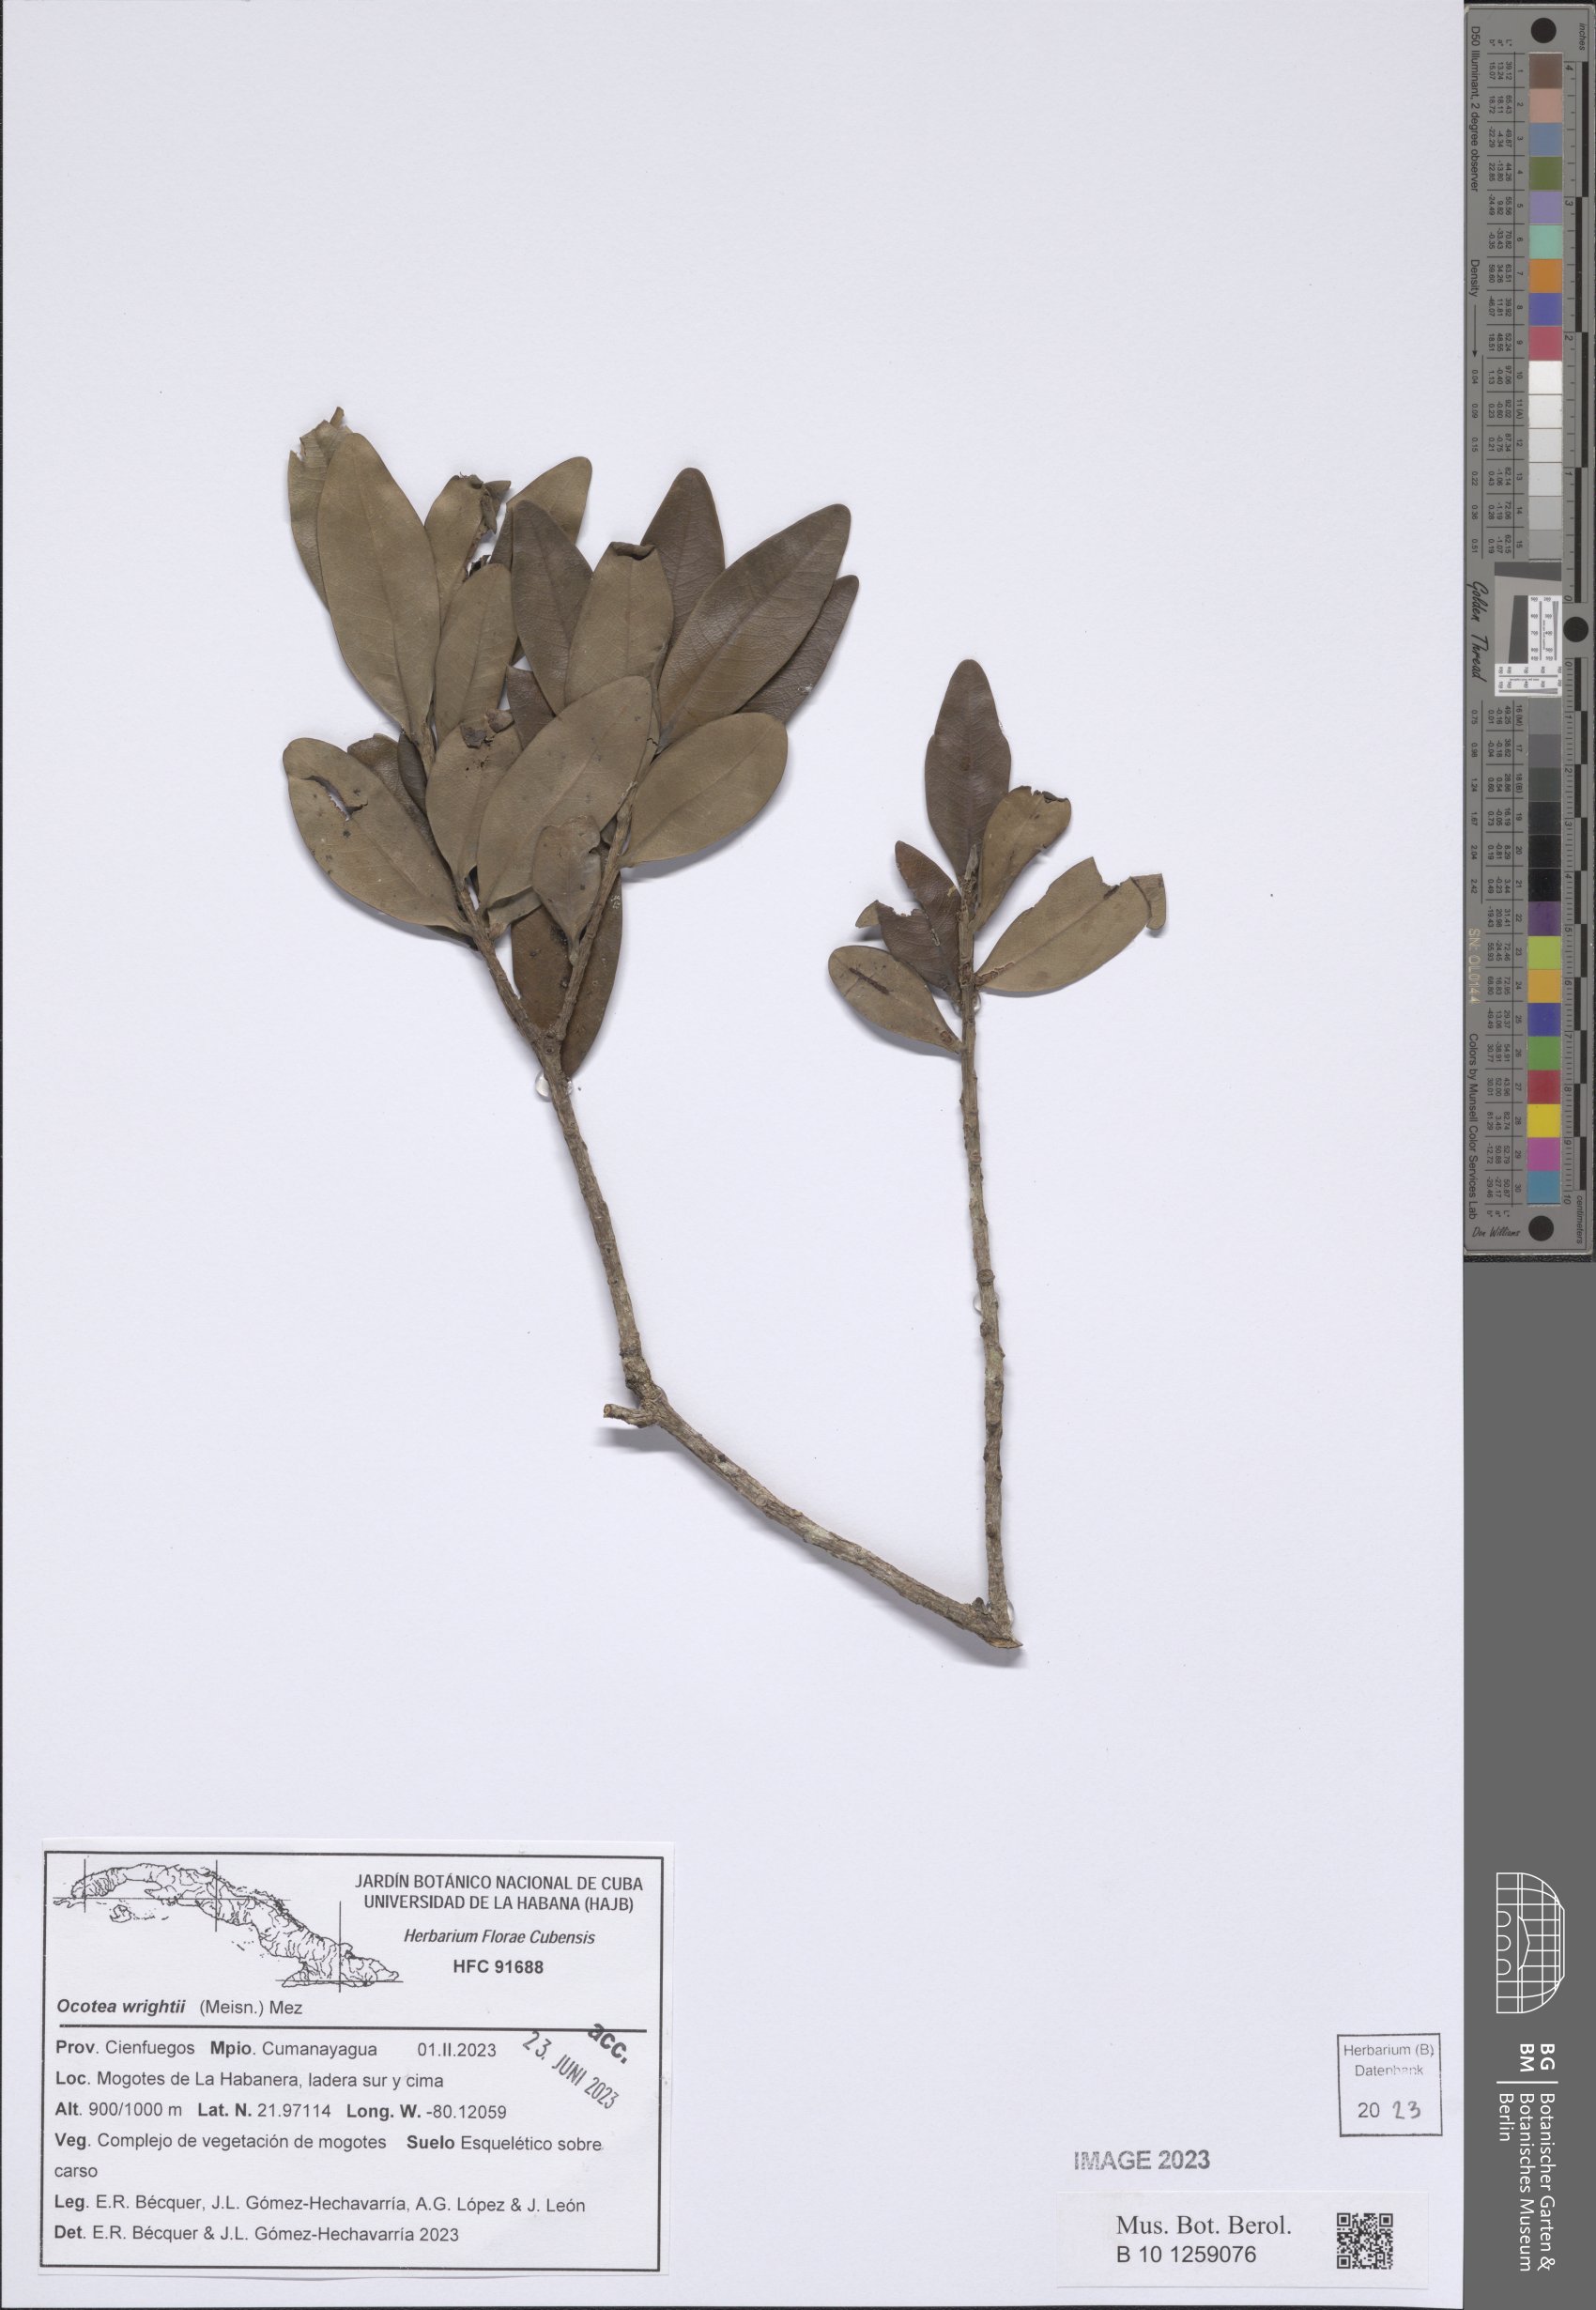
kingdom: Plantae
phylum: Tracheophyta
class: Magnoliopsida
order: Laurales
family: Lauraceae
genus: Ocotea
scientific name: Ocotea wrightii
